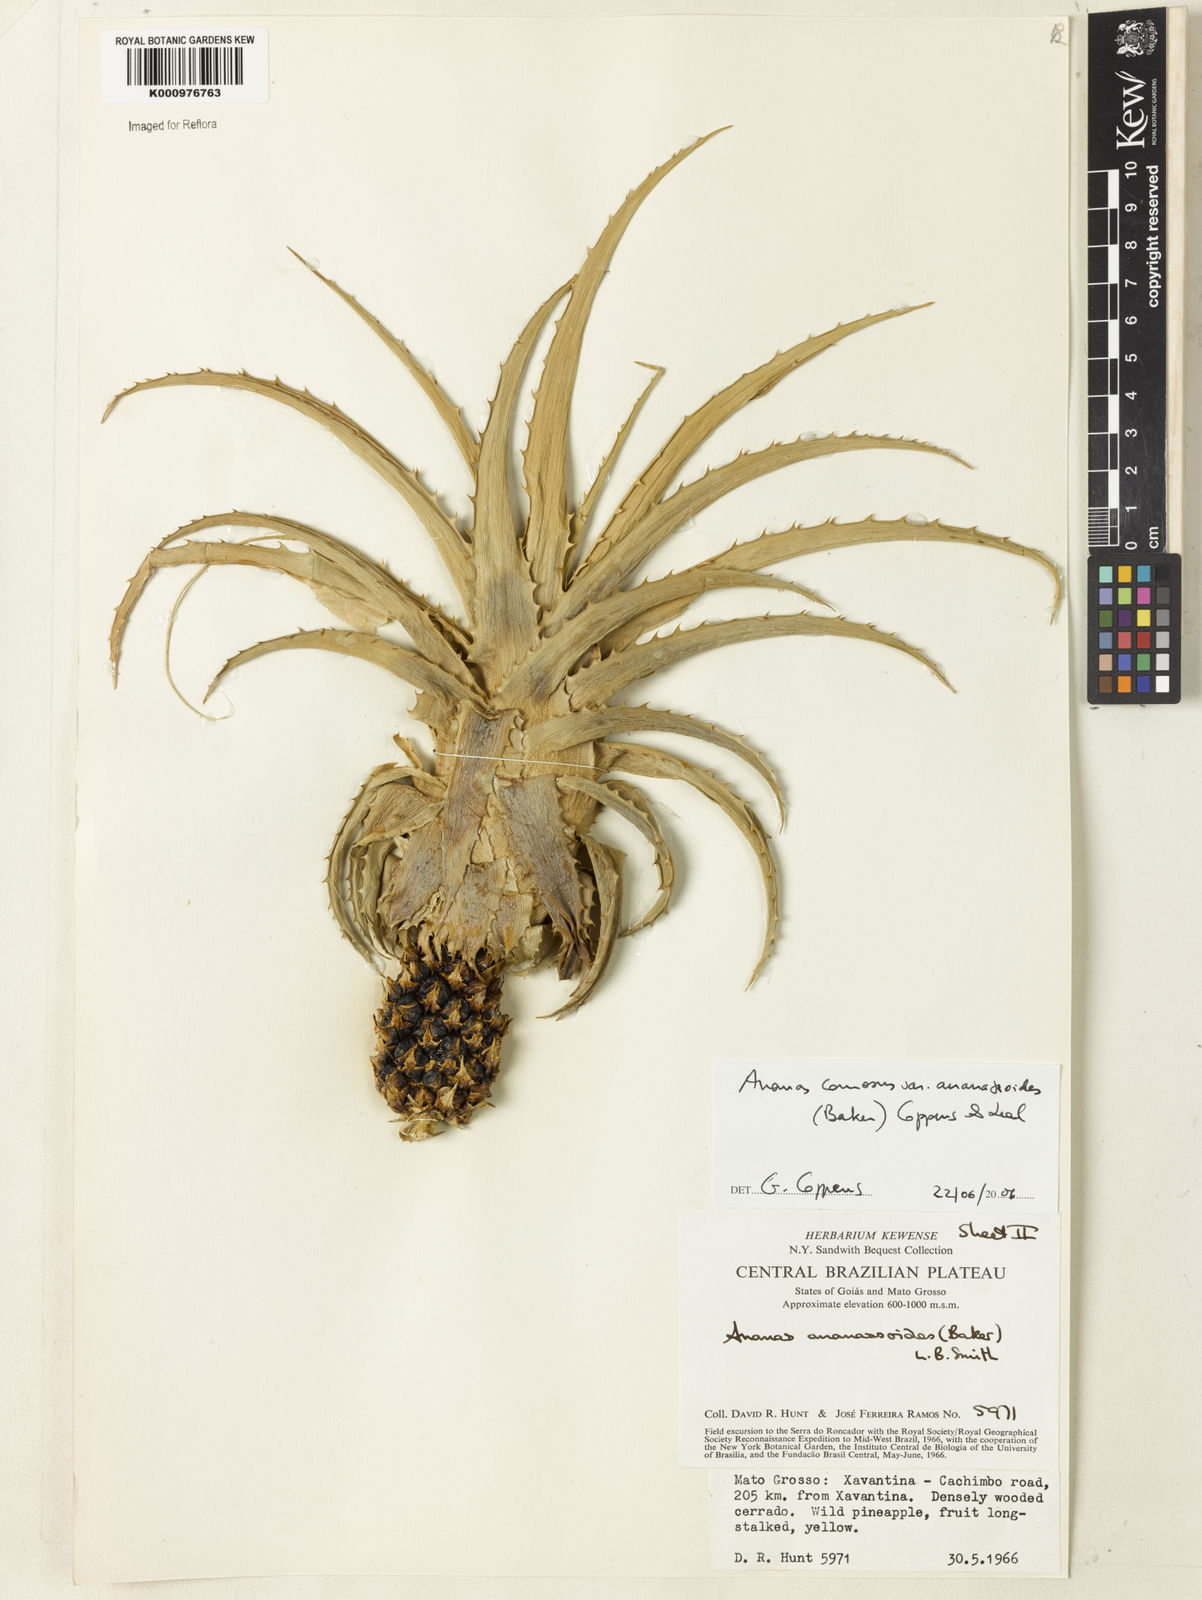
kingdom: Plantae
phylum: Tracheophyta
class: Liliopsida
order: Poales
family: Bromeliaceae
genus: Ananas
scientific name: Ananas comosus
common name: Pineapple
